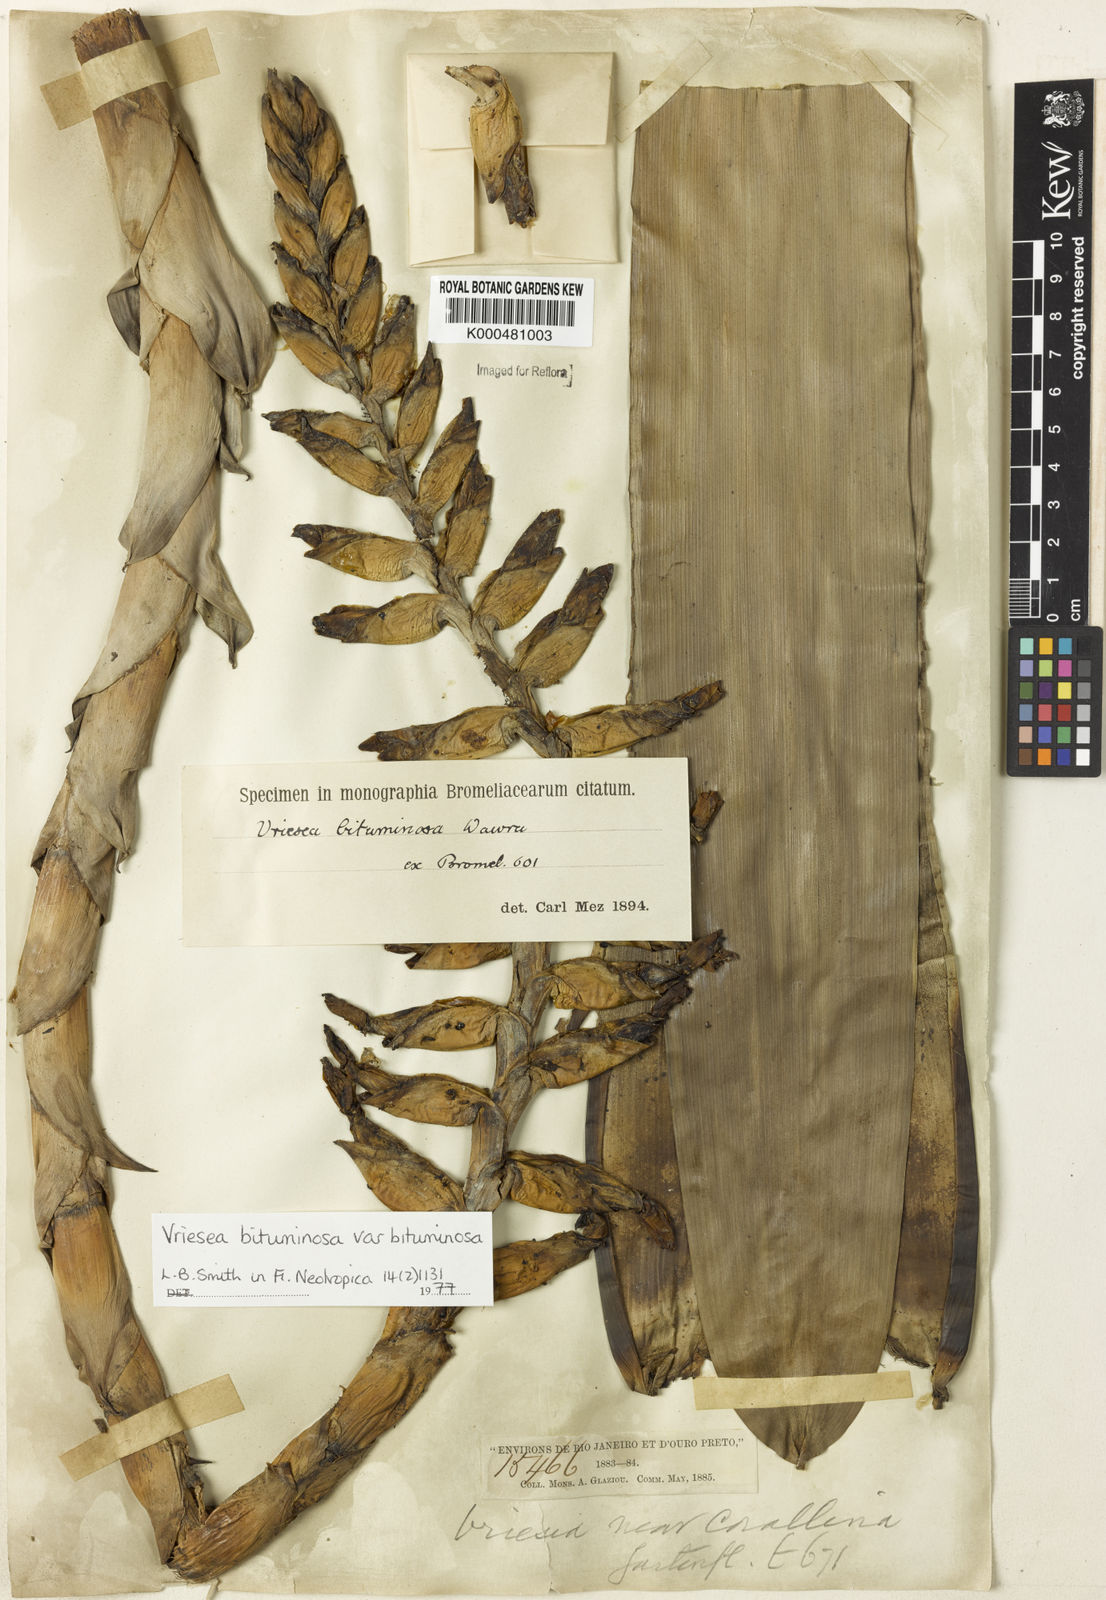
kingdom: Plantae
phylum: Tracheophyta
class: Liliopsida
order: Poales
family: Bromeliaceae
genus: Vriesea
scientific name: Vriesea
